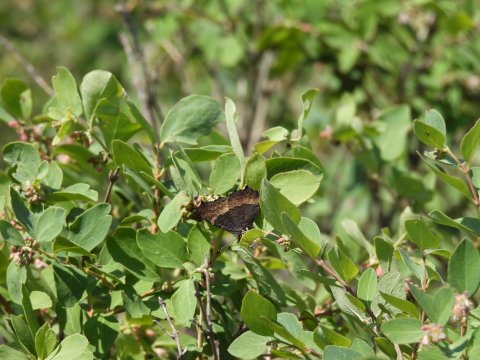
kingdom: Animalia
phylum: Arthropoda
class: Insecta
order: Lepidoptera
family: Nymphalidae
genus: Aglais
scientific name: Aglais milberti
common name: Milbert's Tortoiseshell
